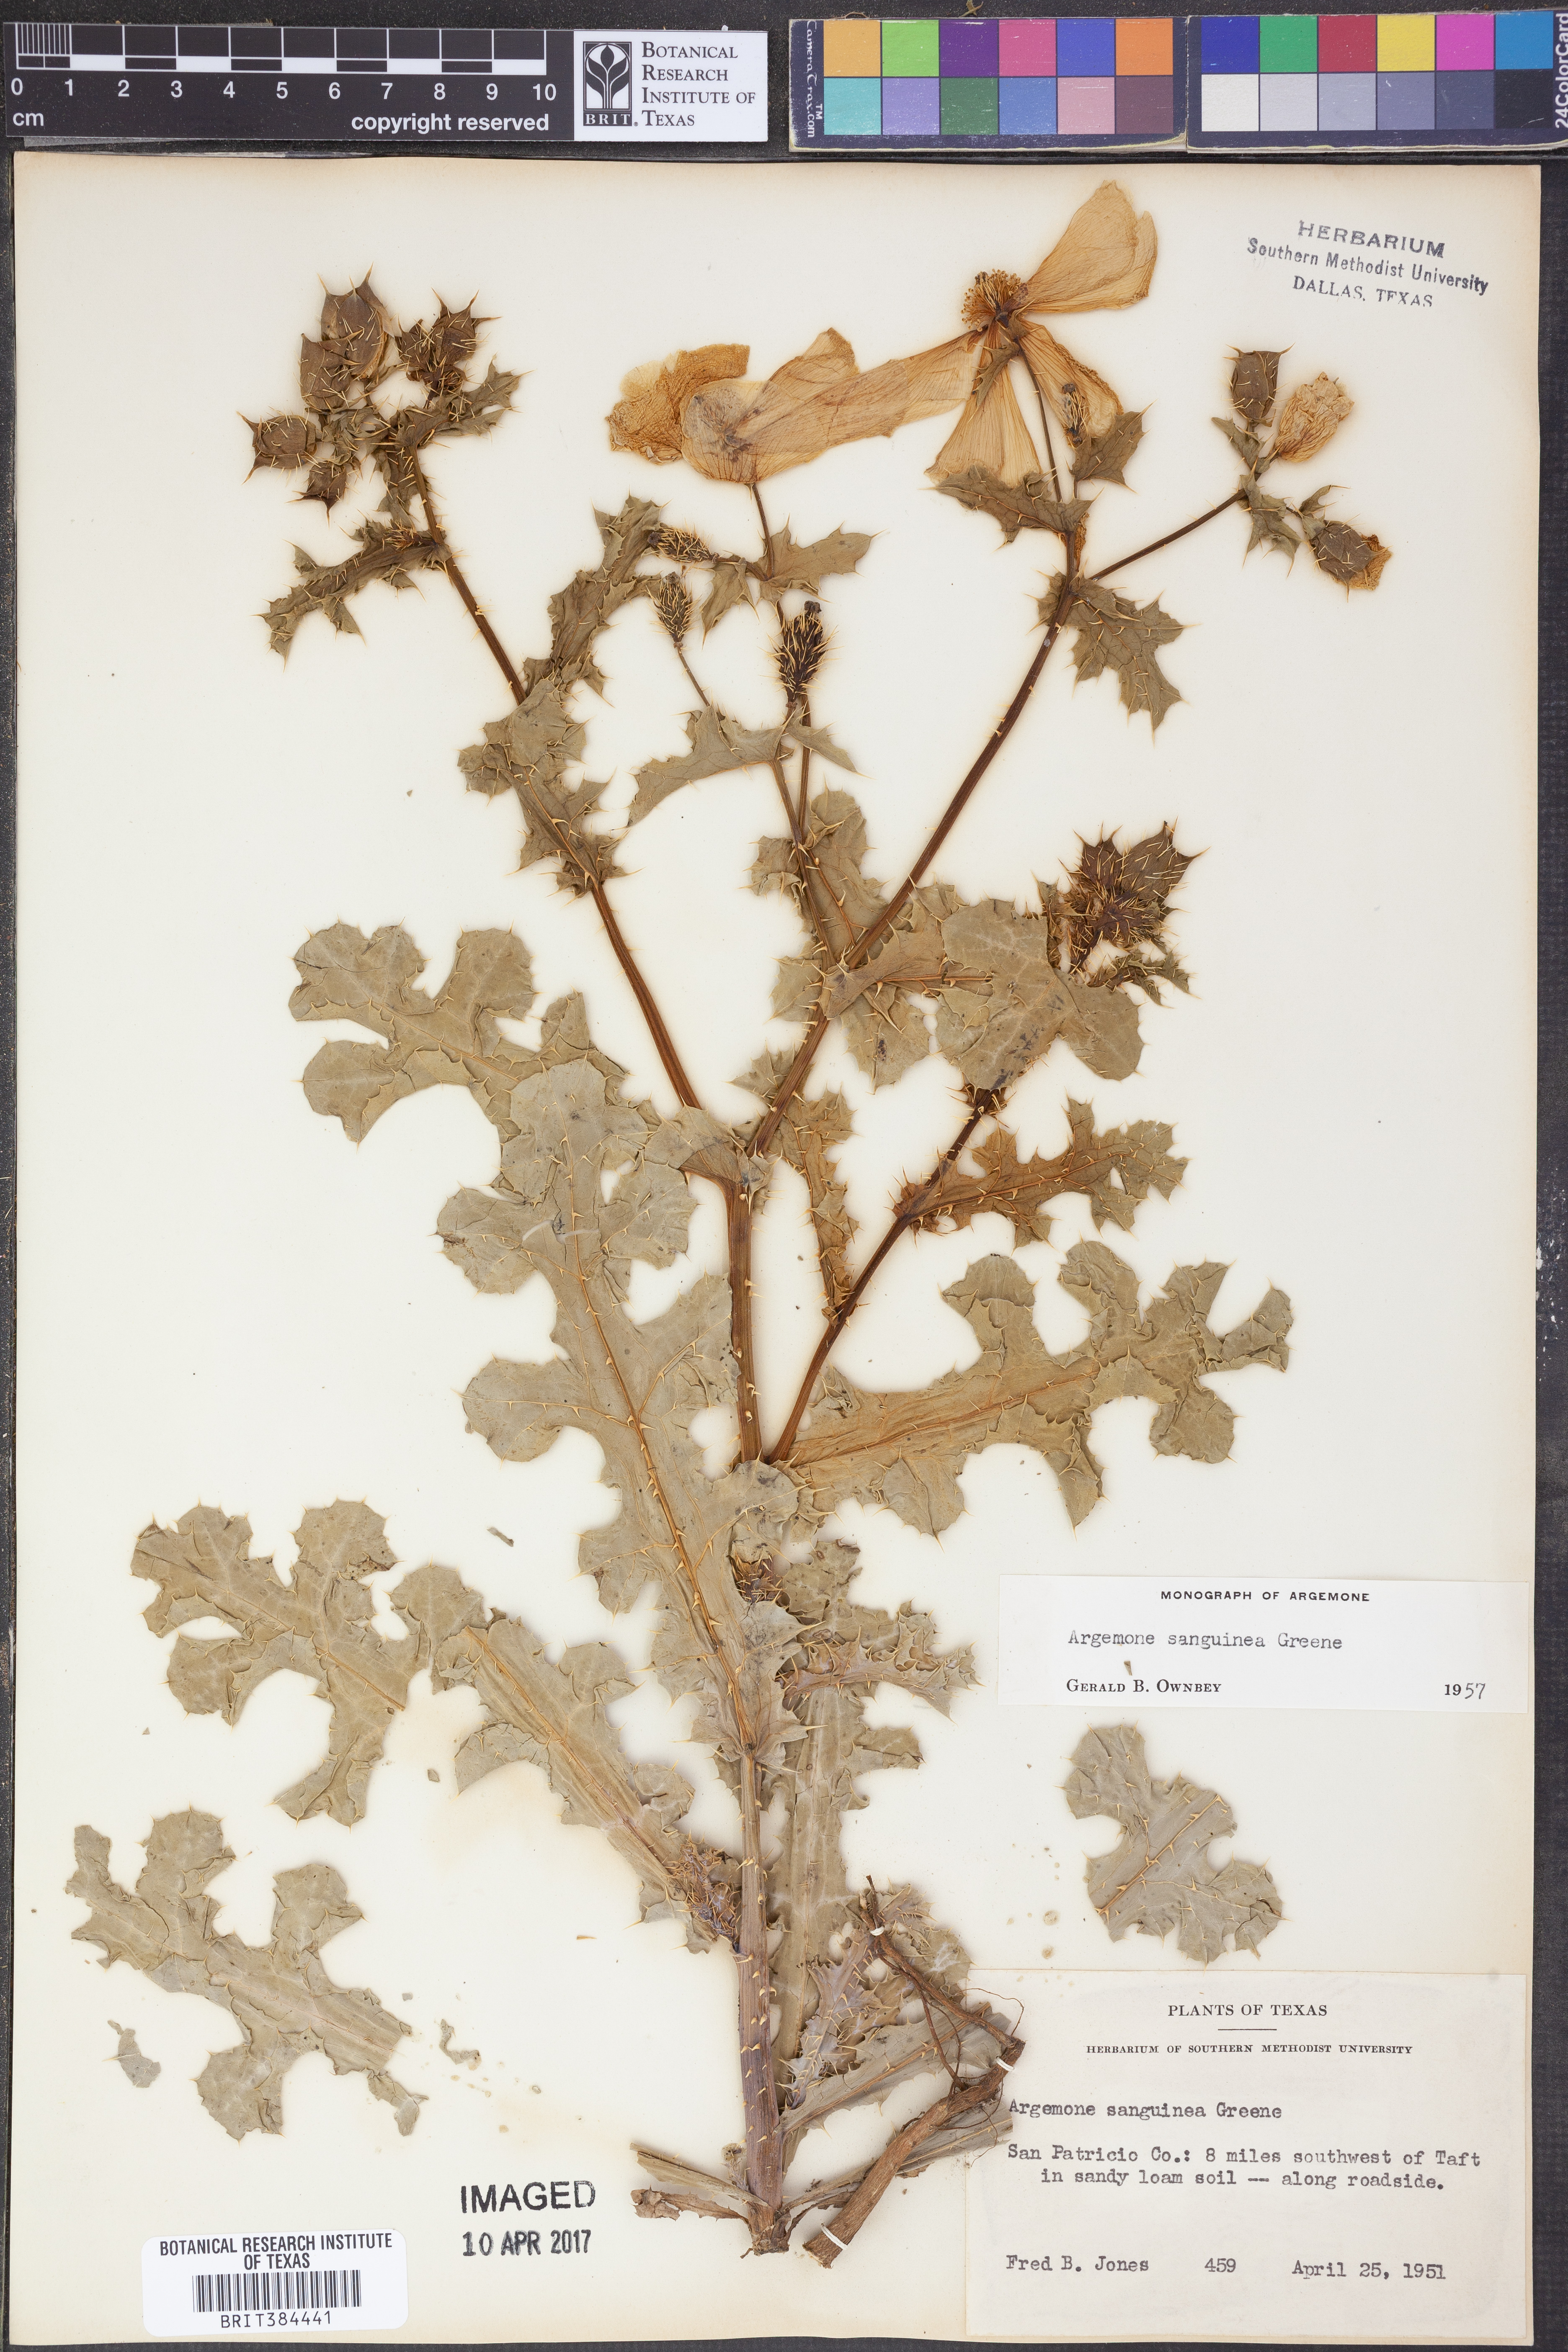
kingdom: Plantae
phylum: Tracheophyta
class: Magnoliopsida
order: Ranunculales
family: Papaveraceae
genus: Argemone
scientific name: Argemone sanguinea
